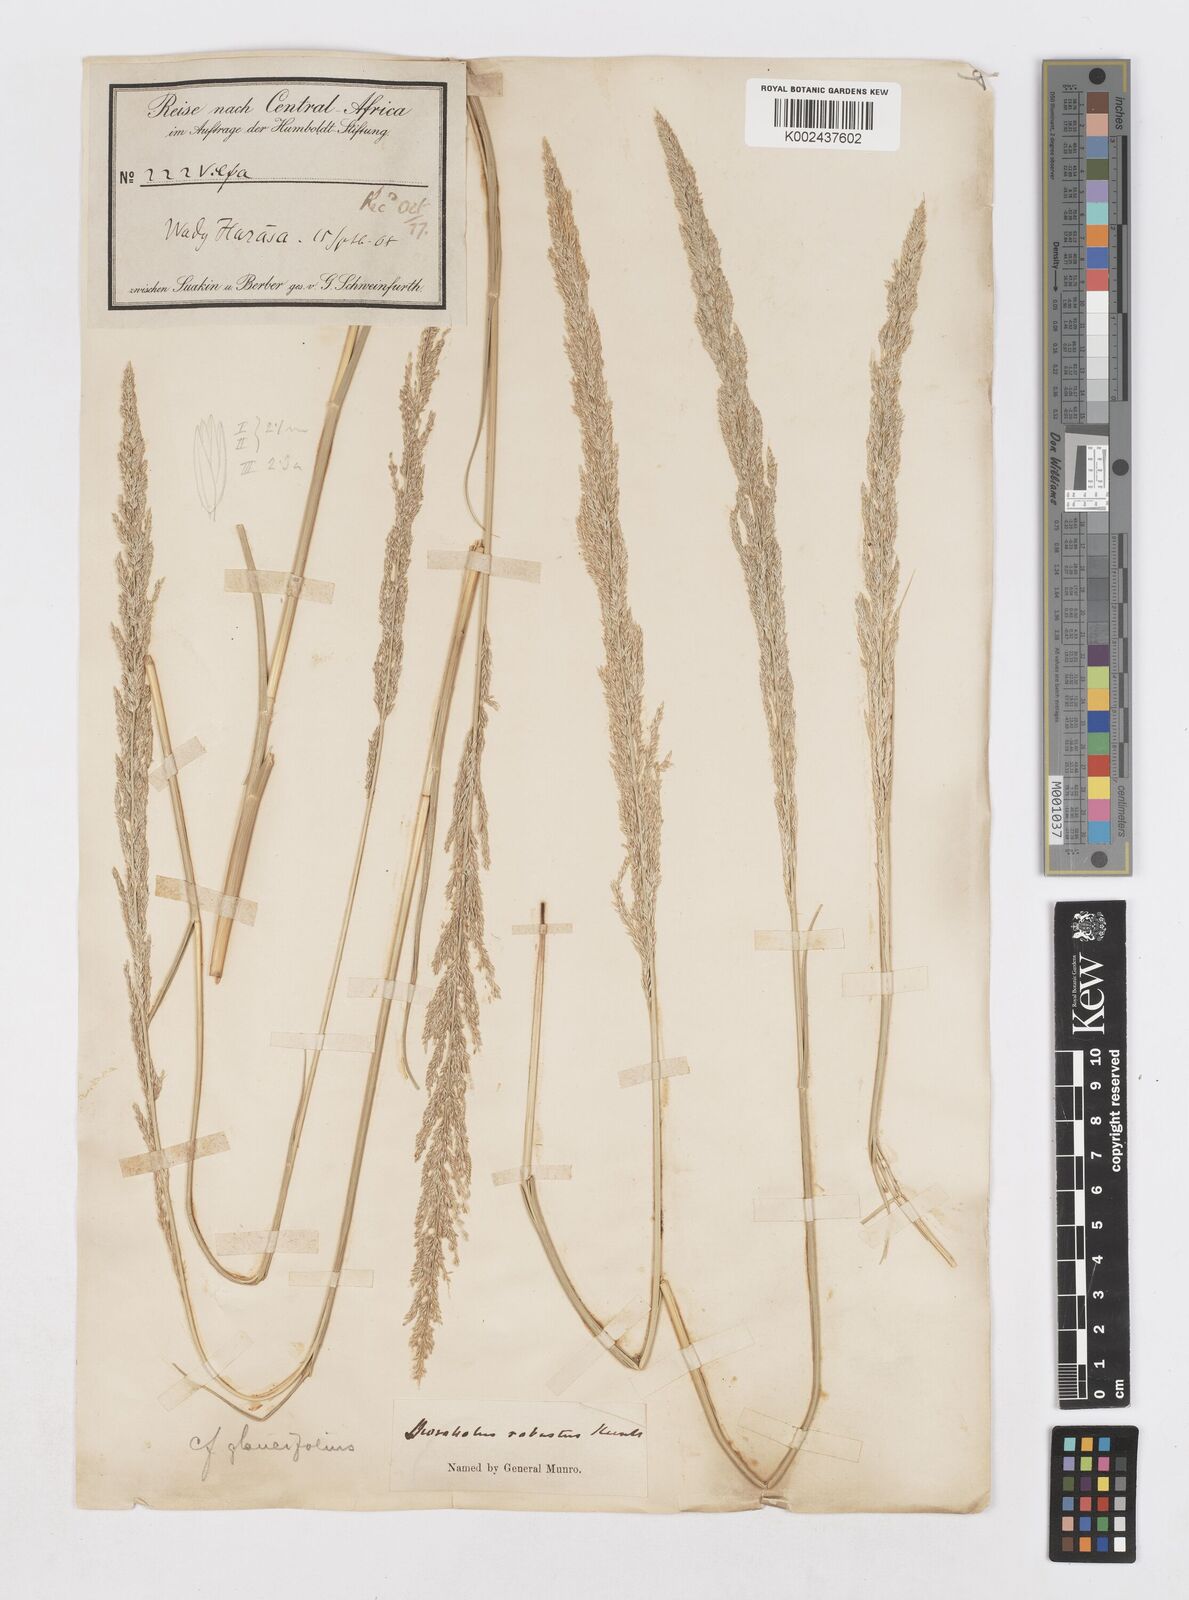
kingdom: Plantae
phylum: Tracheophyta
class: Liliopsida
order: Poales
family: Poaceae
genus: Sporobolus
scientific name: Sporobolus consimilis
